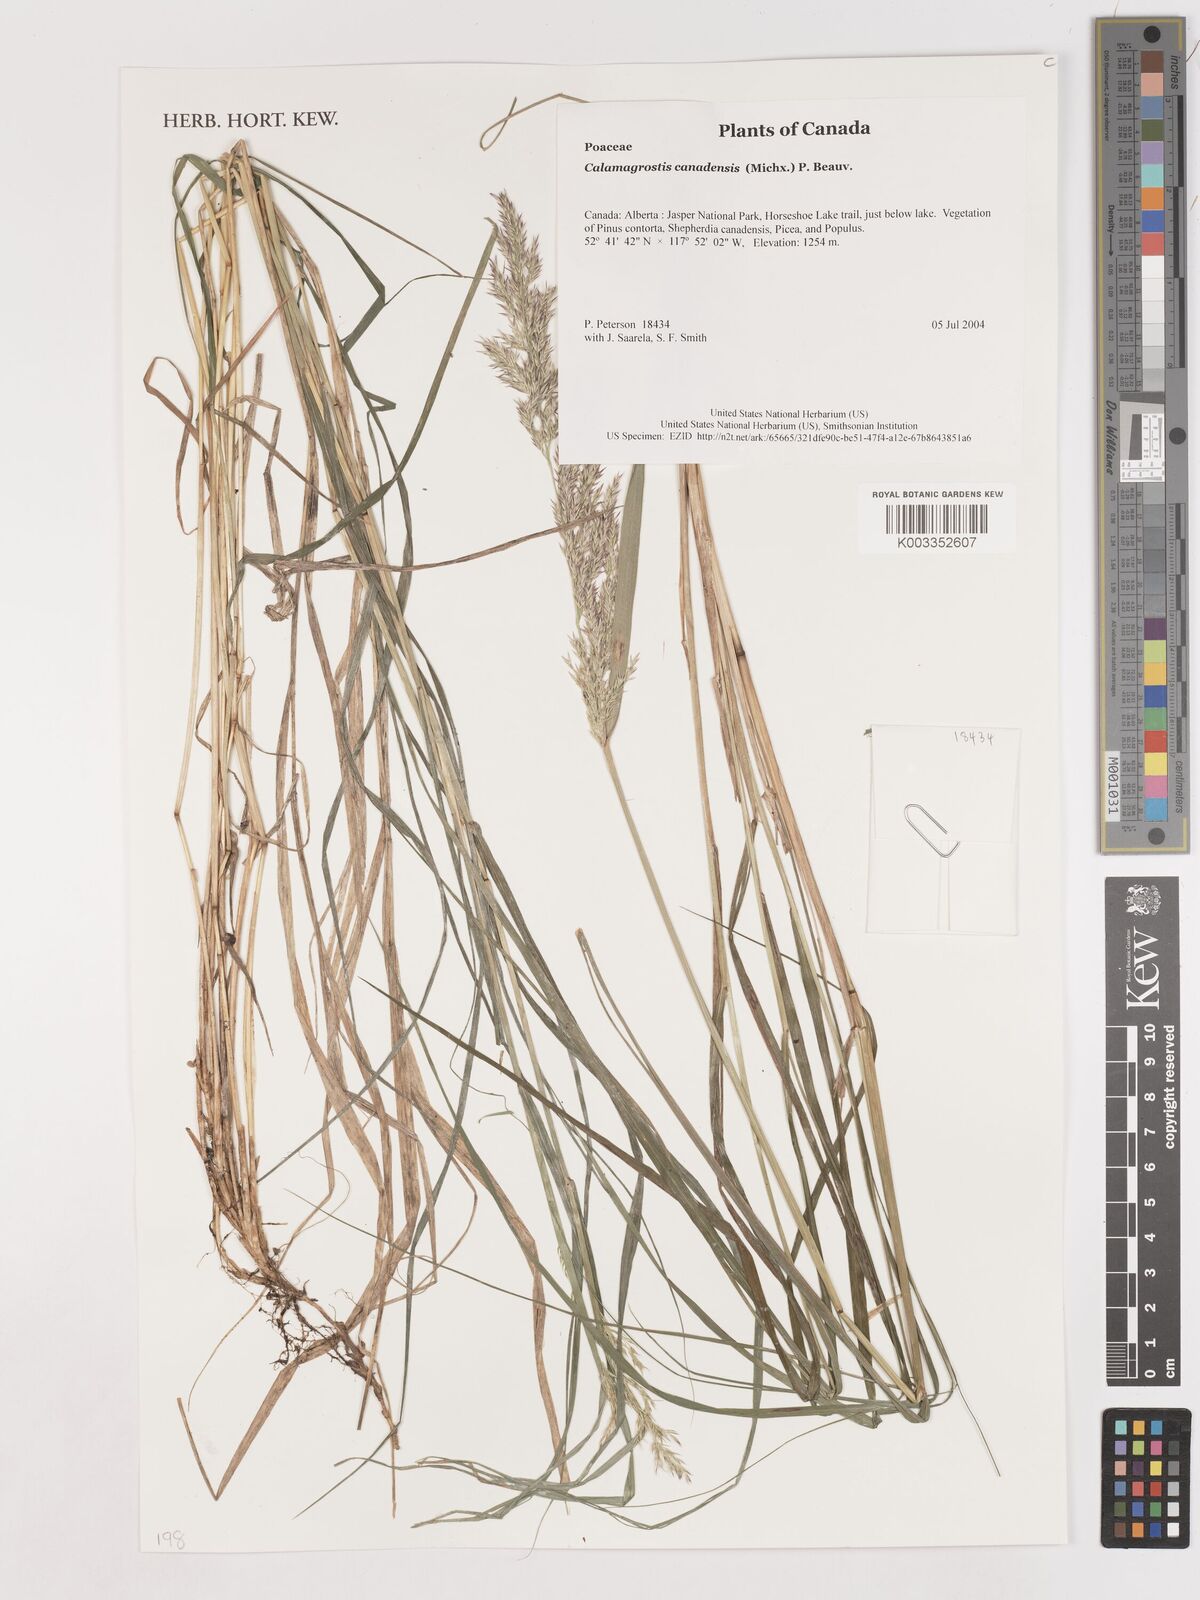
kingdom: Plantae
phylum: Tracheophyta
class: Liliopsida
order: Poales
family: Poaceae
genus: Calamagrostis
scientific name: Calamagrostis canadensis
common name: Canada bluejoint
